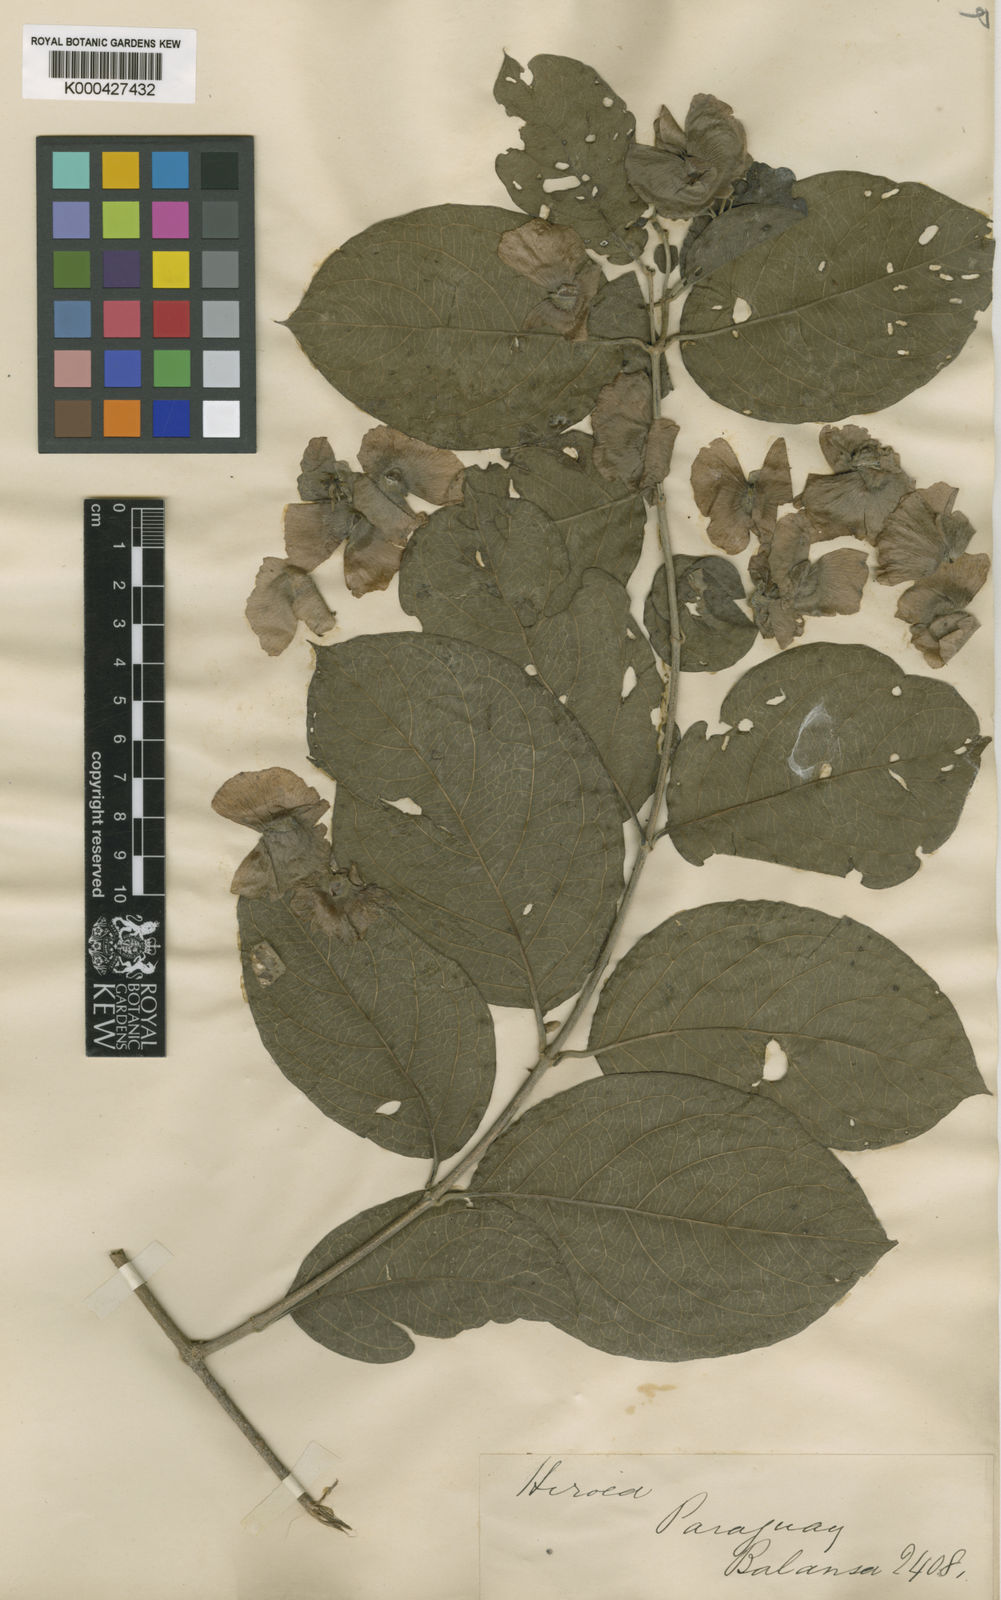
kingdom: Plantae
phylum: Tracheophyta
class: Magnoliopsida
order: Malpighiales
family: Malpighiaceae
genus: Alicia
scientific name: Alicia anisopetala
